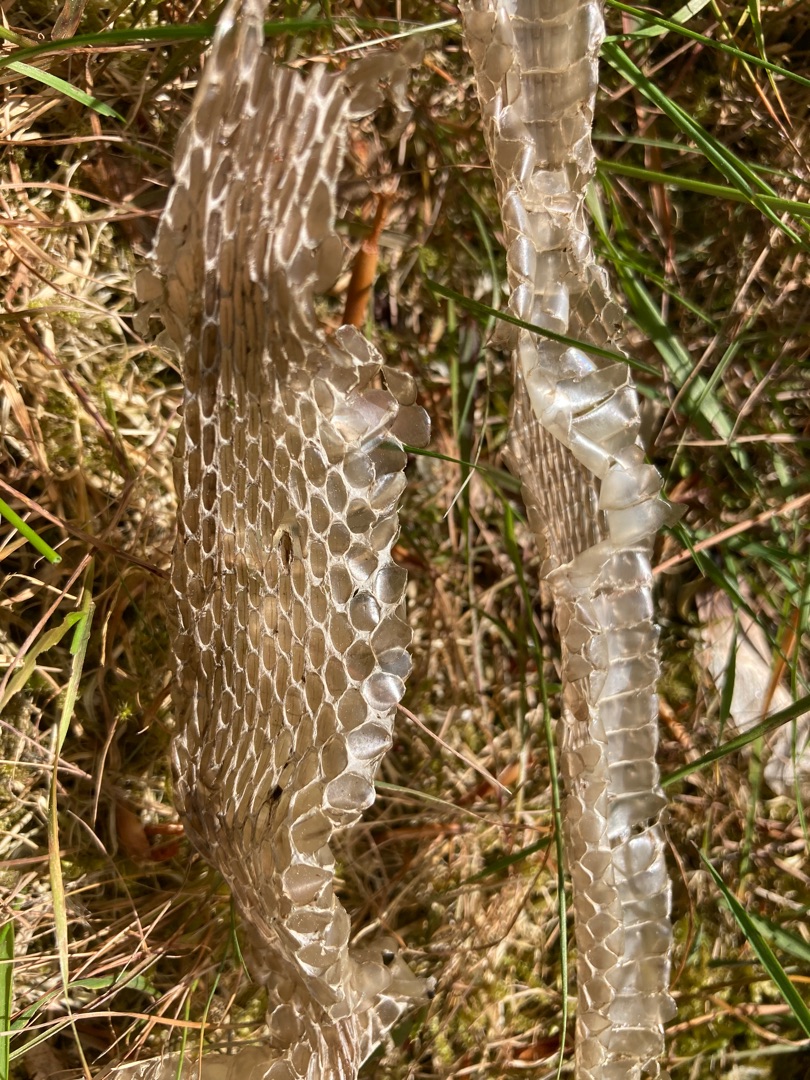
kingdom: Animalia
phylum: Chordata
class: Squamata
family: Colubridae
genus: Natrix
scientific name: Natrix natrix
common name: Snog
